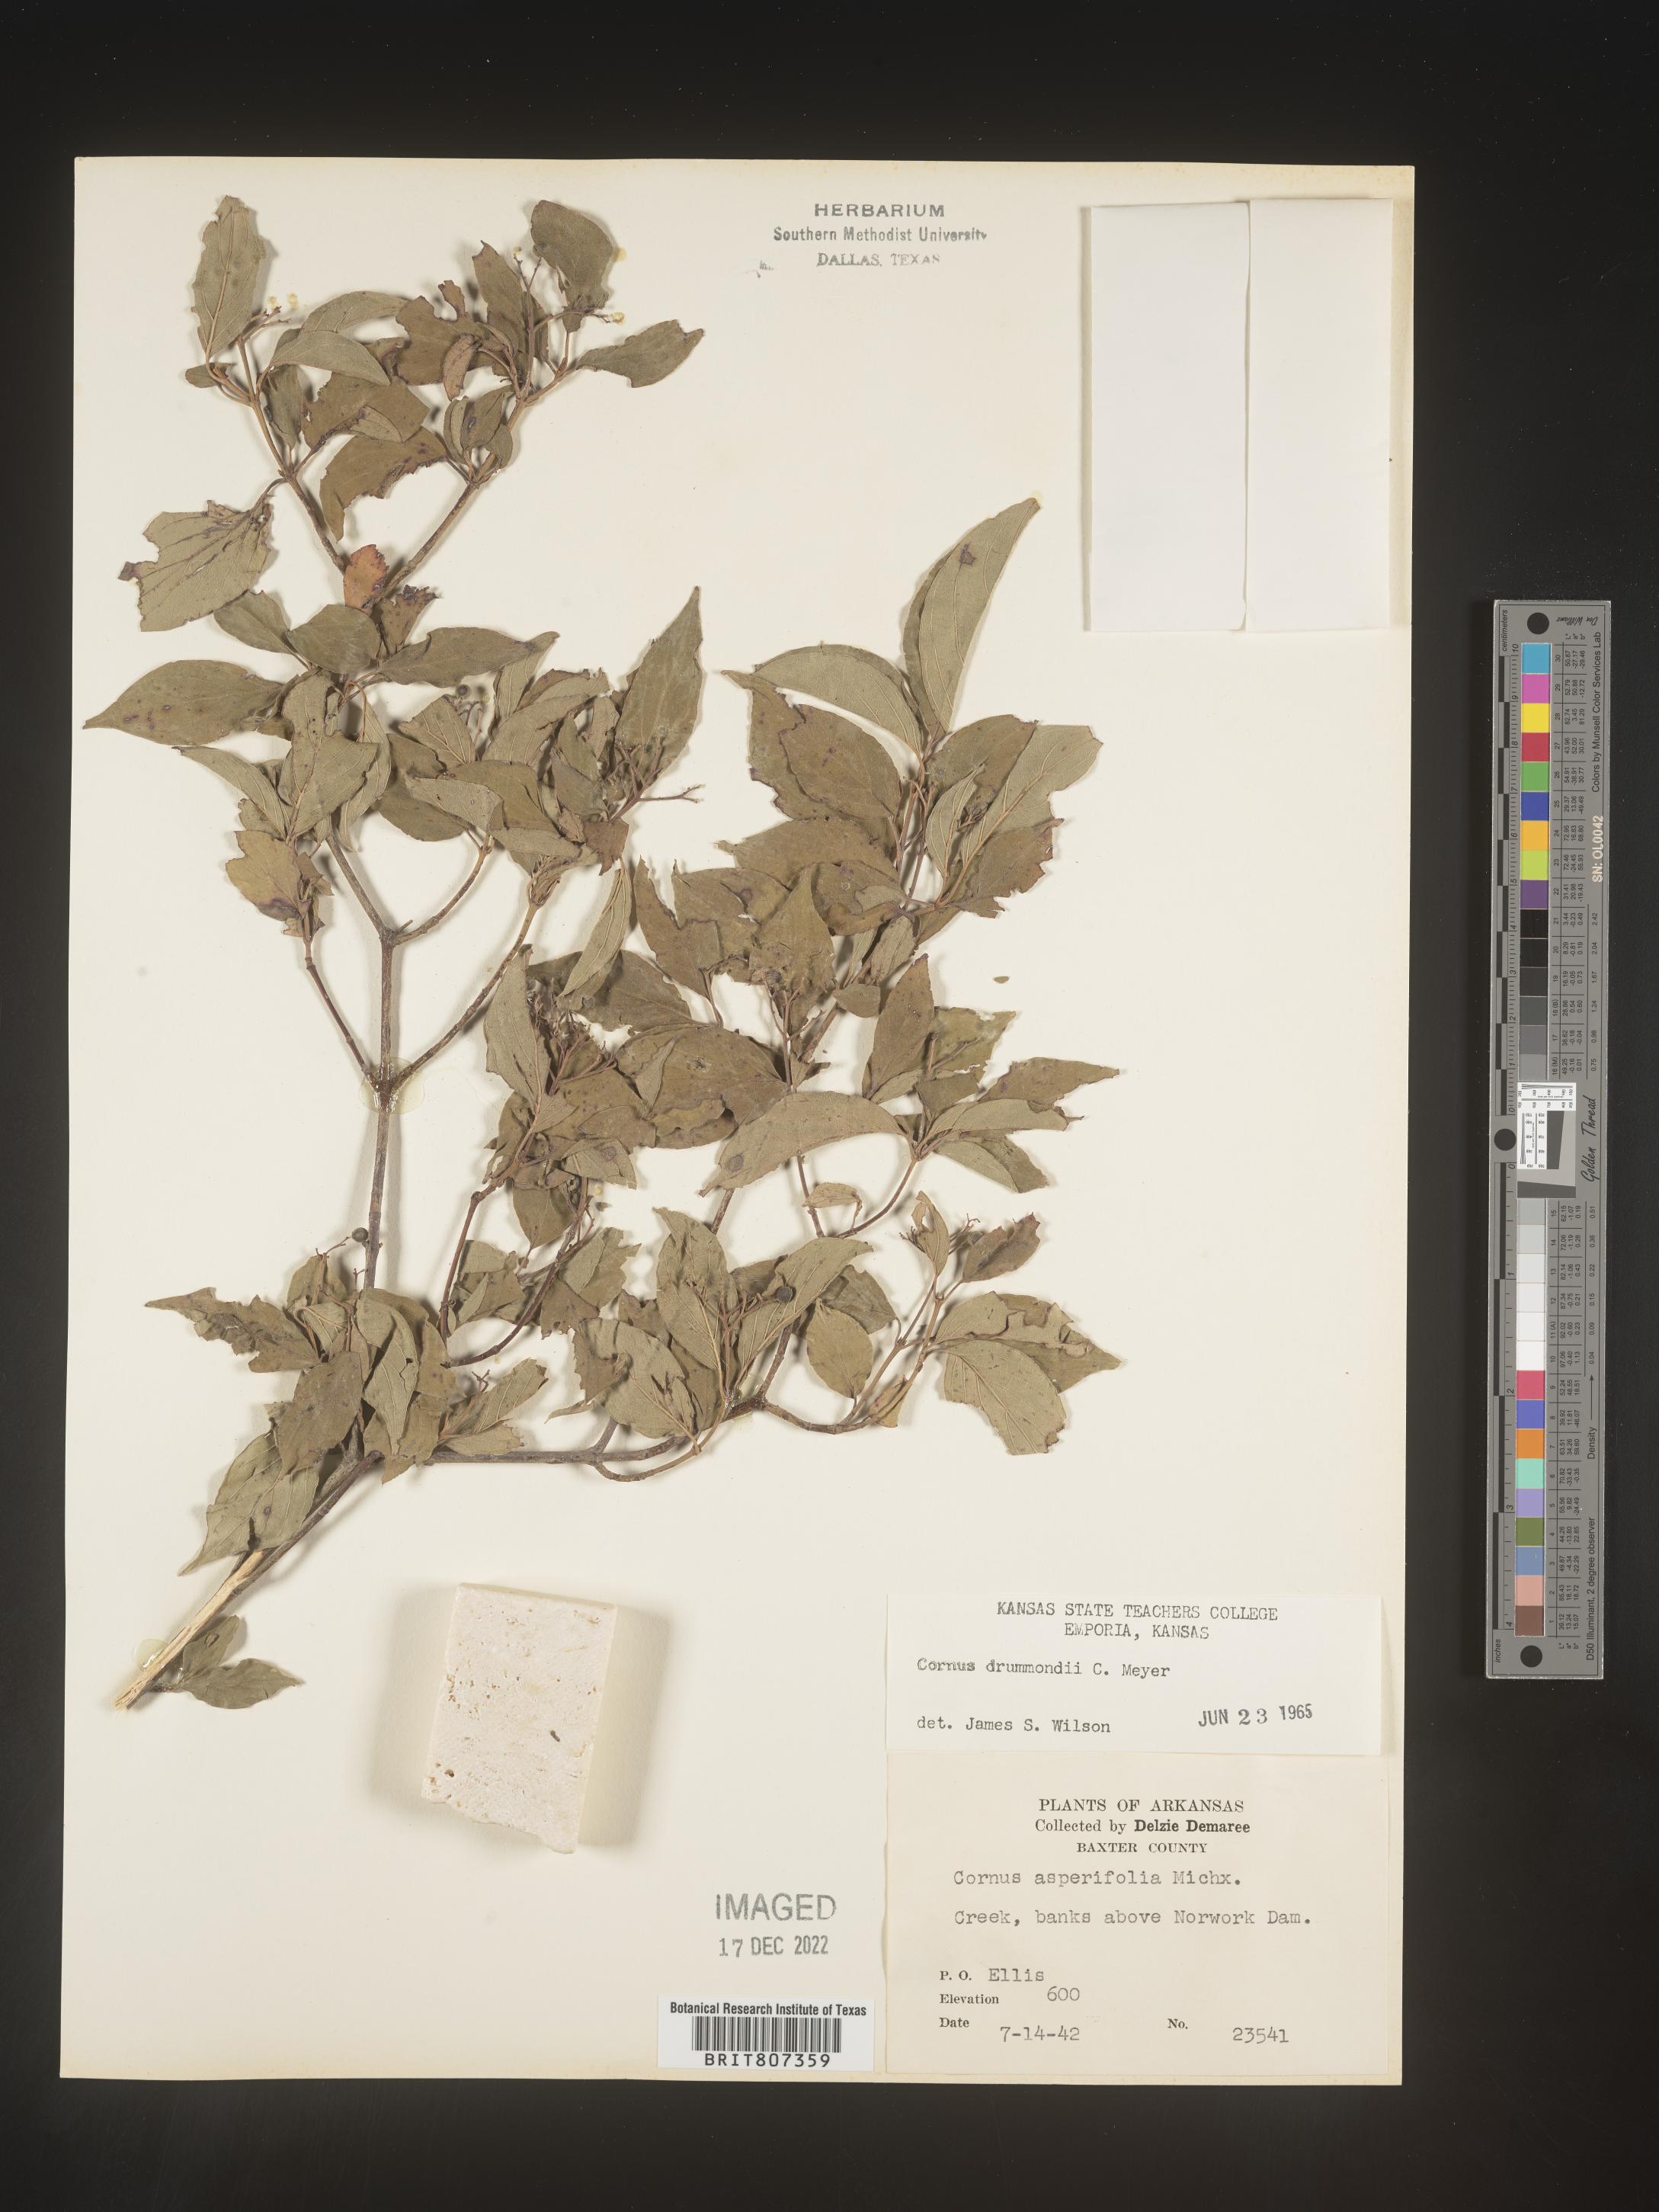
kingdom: Plantae
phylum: Tracheophyta
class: Magnoliopsida
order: Cornales
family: Cornaceae
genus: Cornus
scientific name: Cornus drummondii
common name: Rough-leaf dogwood
